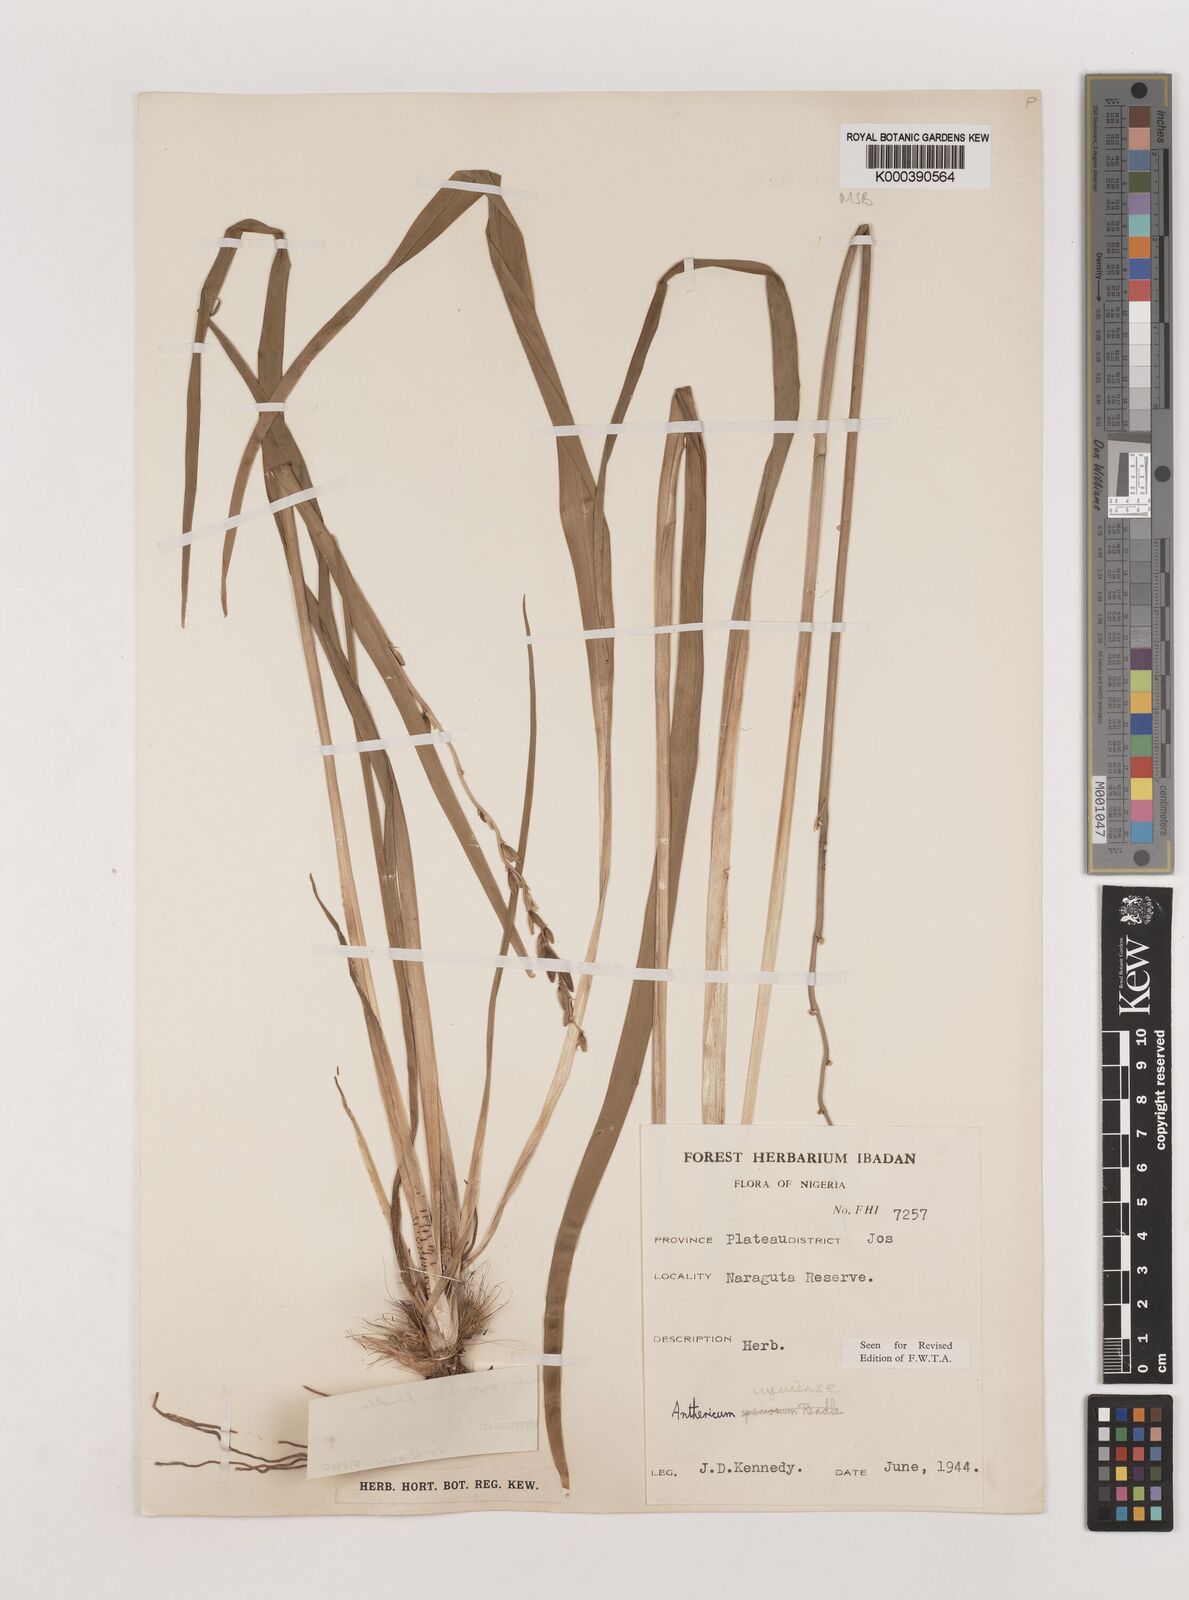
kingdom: Plantae
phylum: Tracheophyta
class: Liliopsida
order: Asparagales
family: Asparagaceae
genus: Chlorophytum
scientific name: Chlorophytum cameronii
